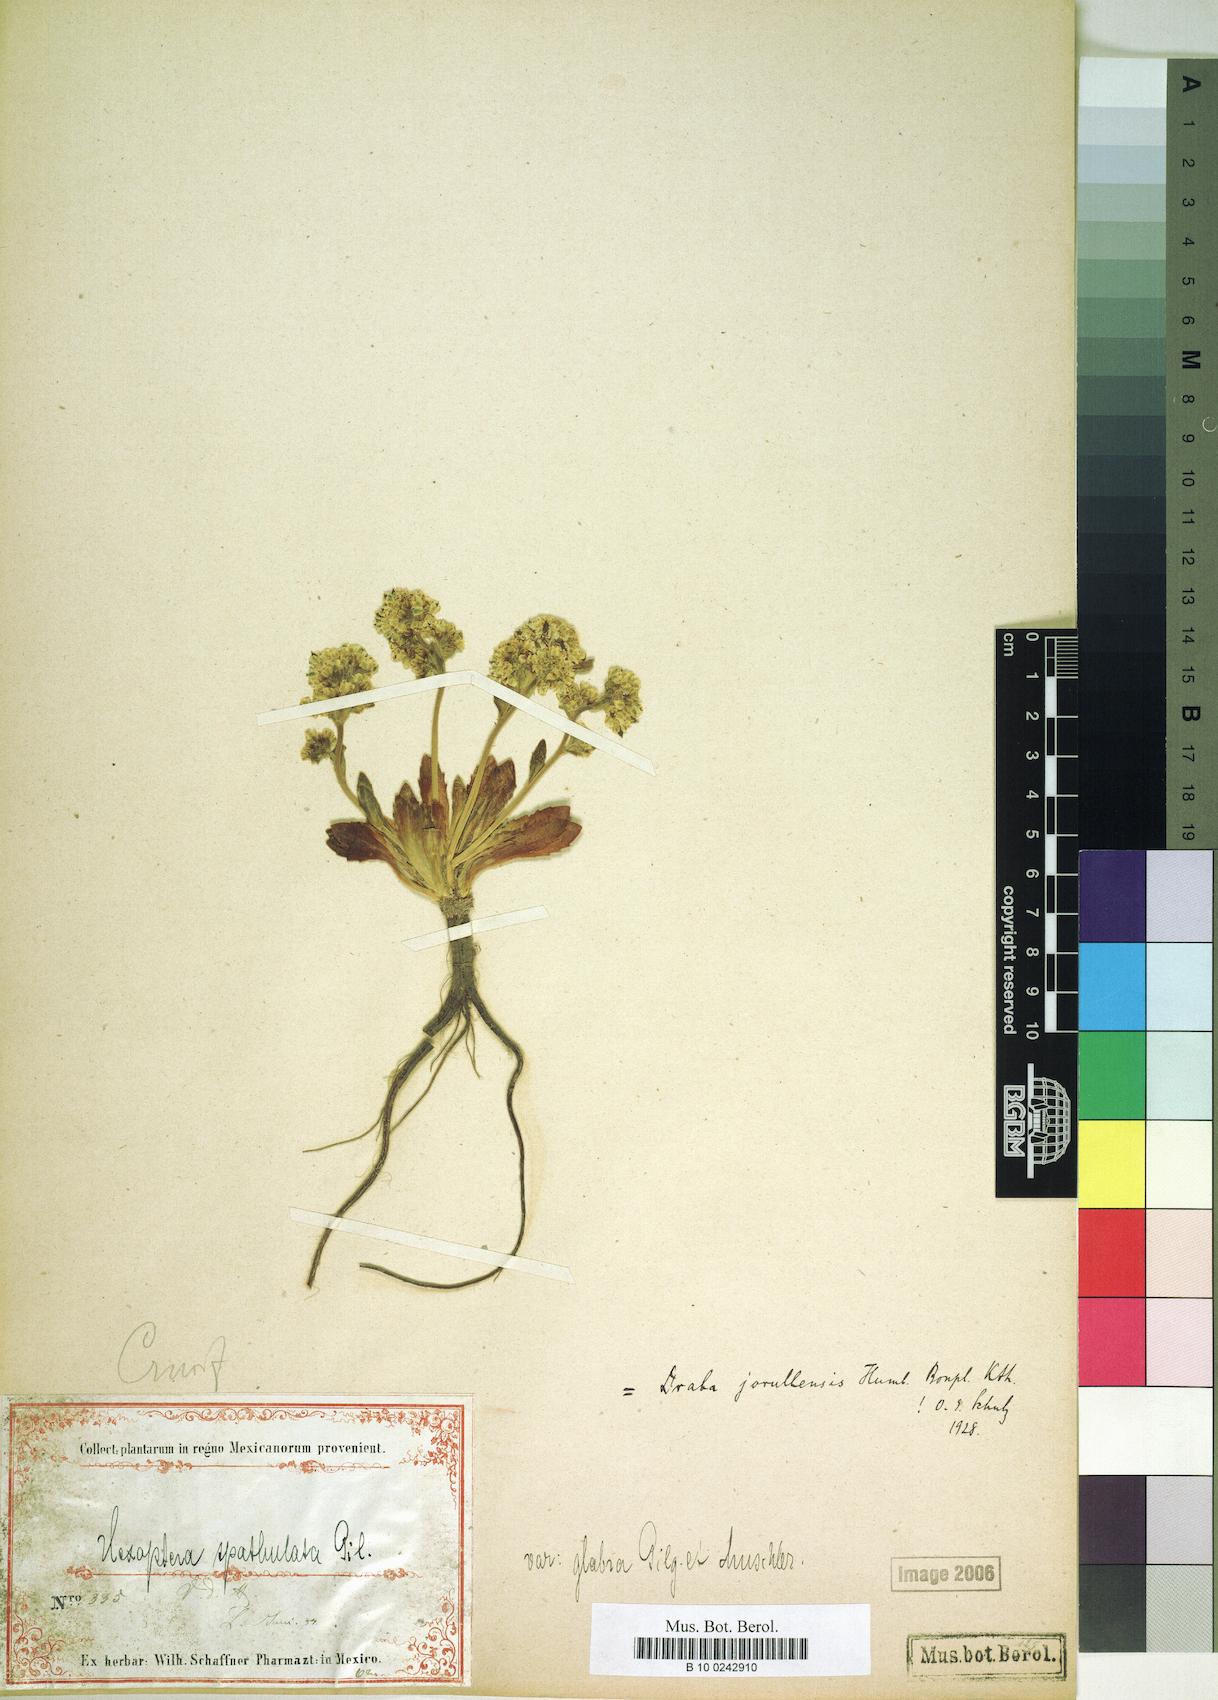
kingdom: Plantae
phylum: Tracheophyta
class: Magnoliopsida
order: Brassicales
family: Brassicaceae
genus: Draba
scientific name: Draba jorullensis
